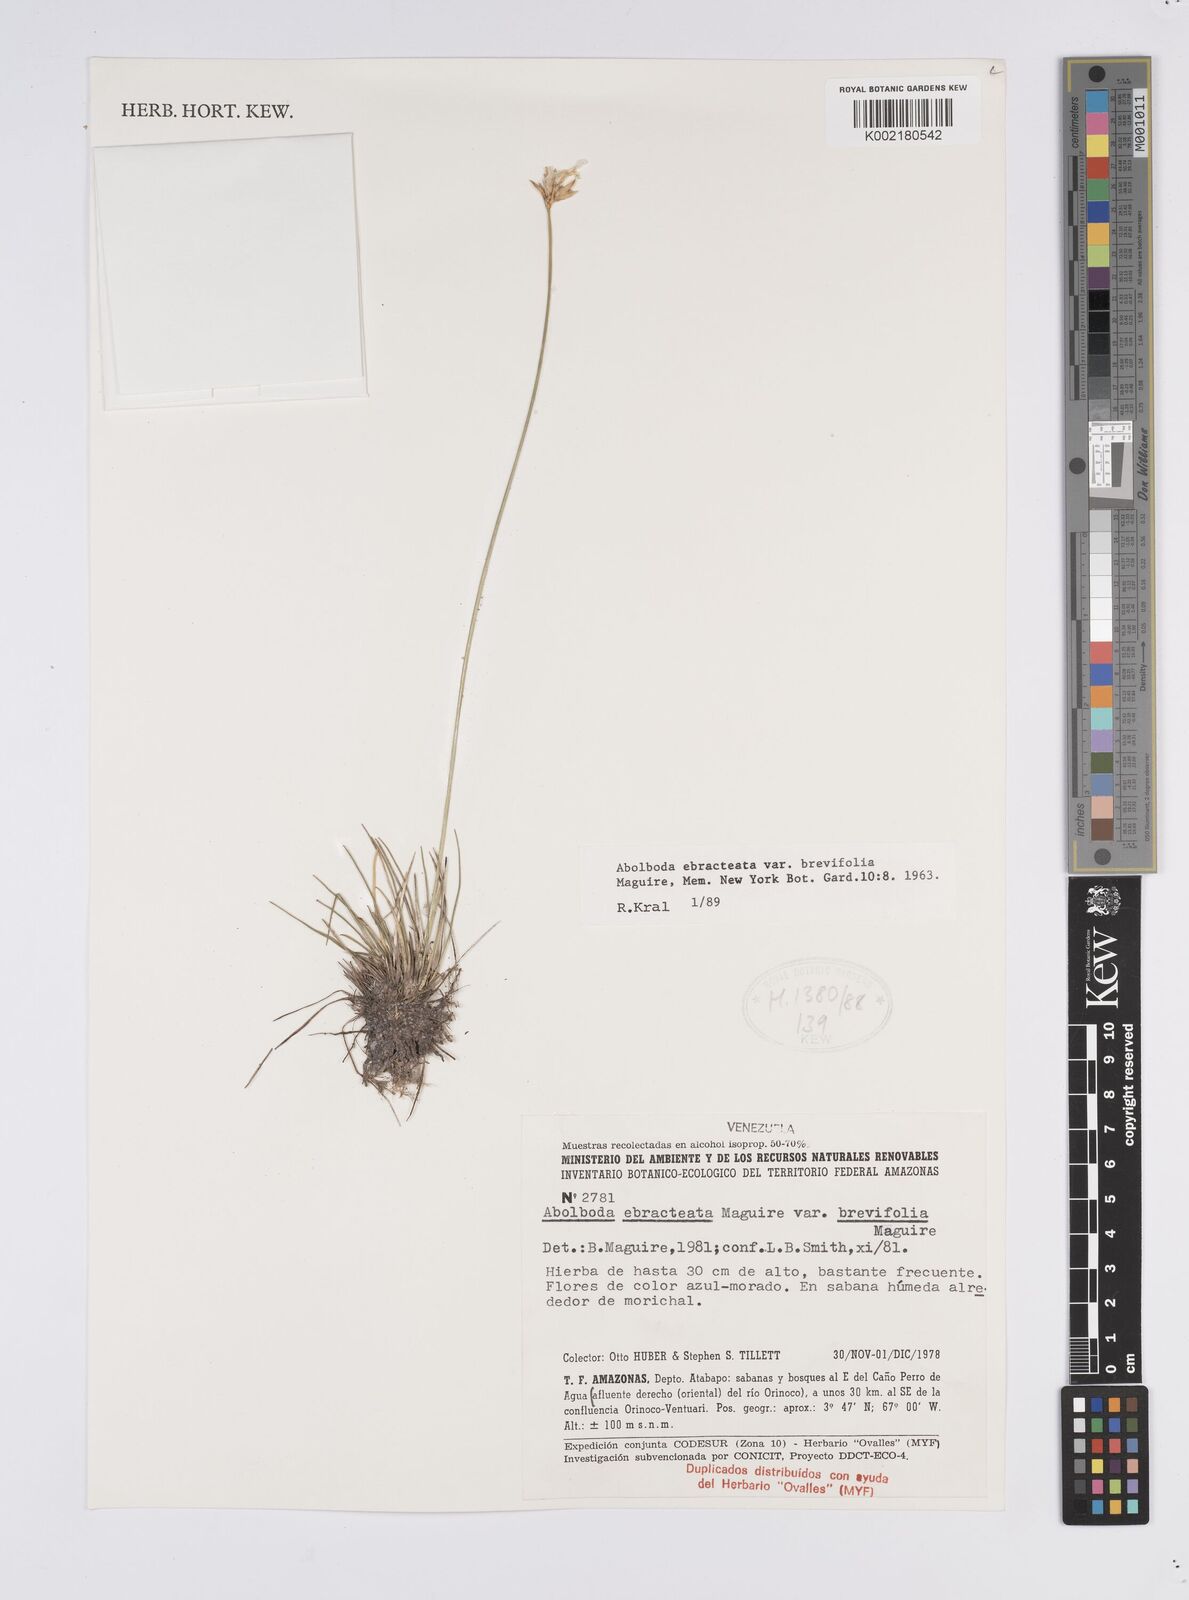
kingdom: Plantae
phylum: Tracheophyta
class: Liliopsida
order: Poales
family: Xyridaceae
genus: Abolboda
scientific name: Abolboda ebracteata
